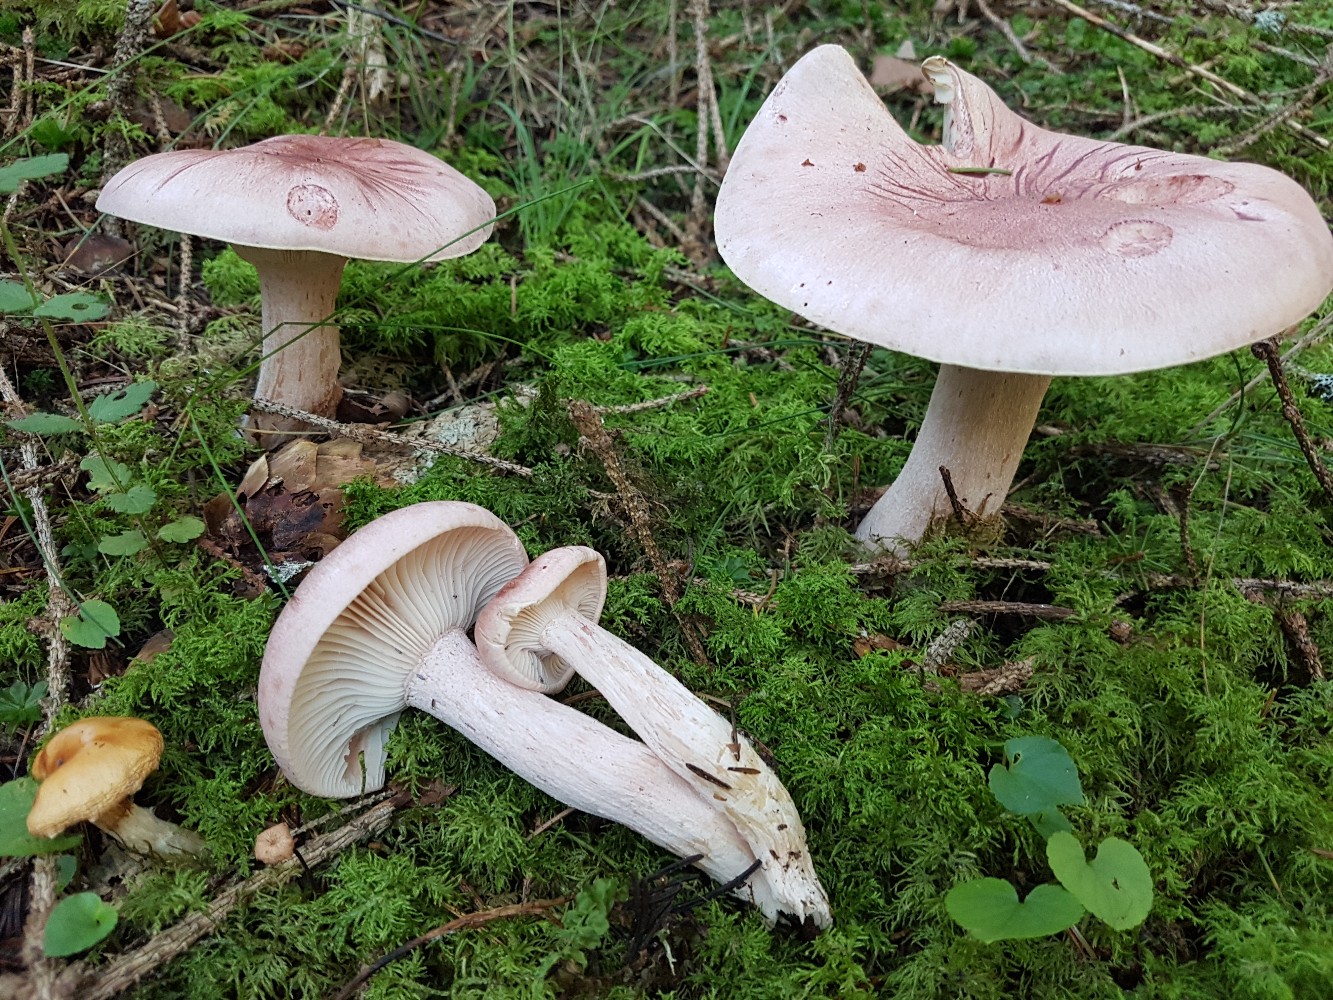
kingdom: Fungi
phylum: Basidiomycota
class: Agaricomycetes
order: Agaricales
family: Hygrophoraceae
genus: Hygrophorus
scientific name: Hygrophorus erubescens
